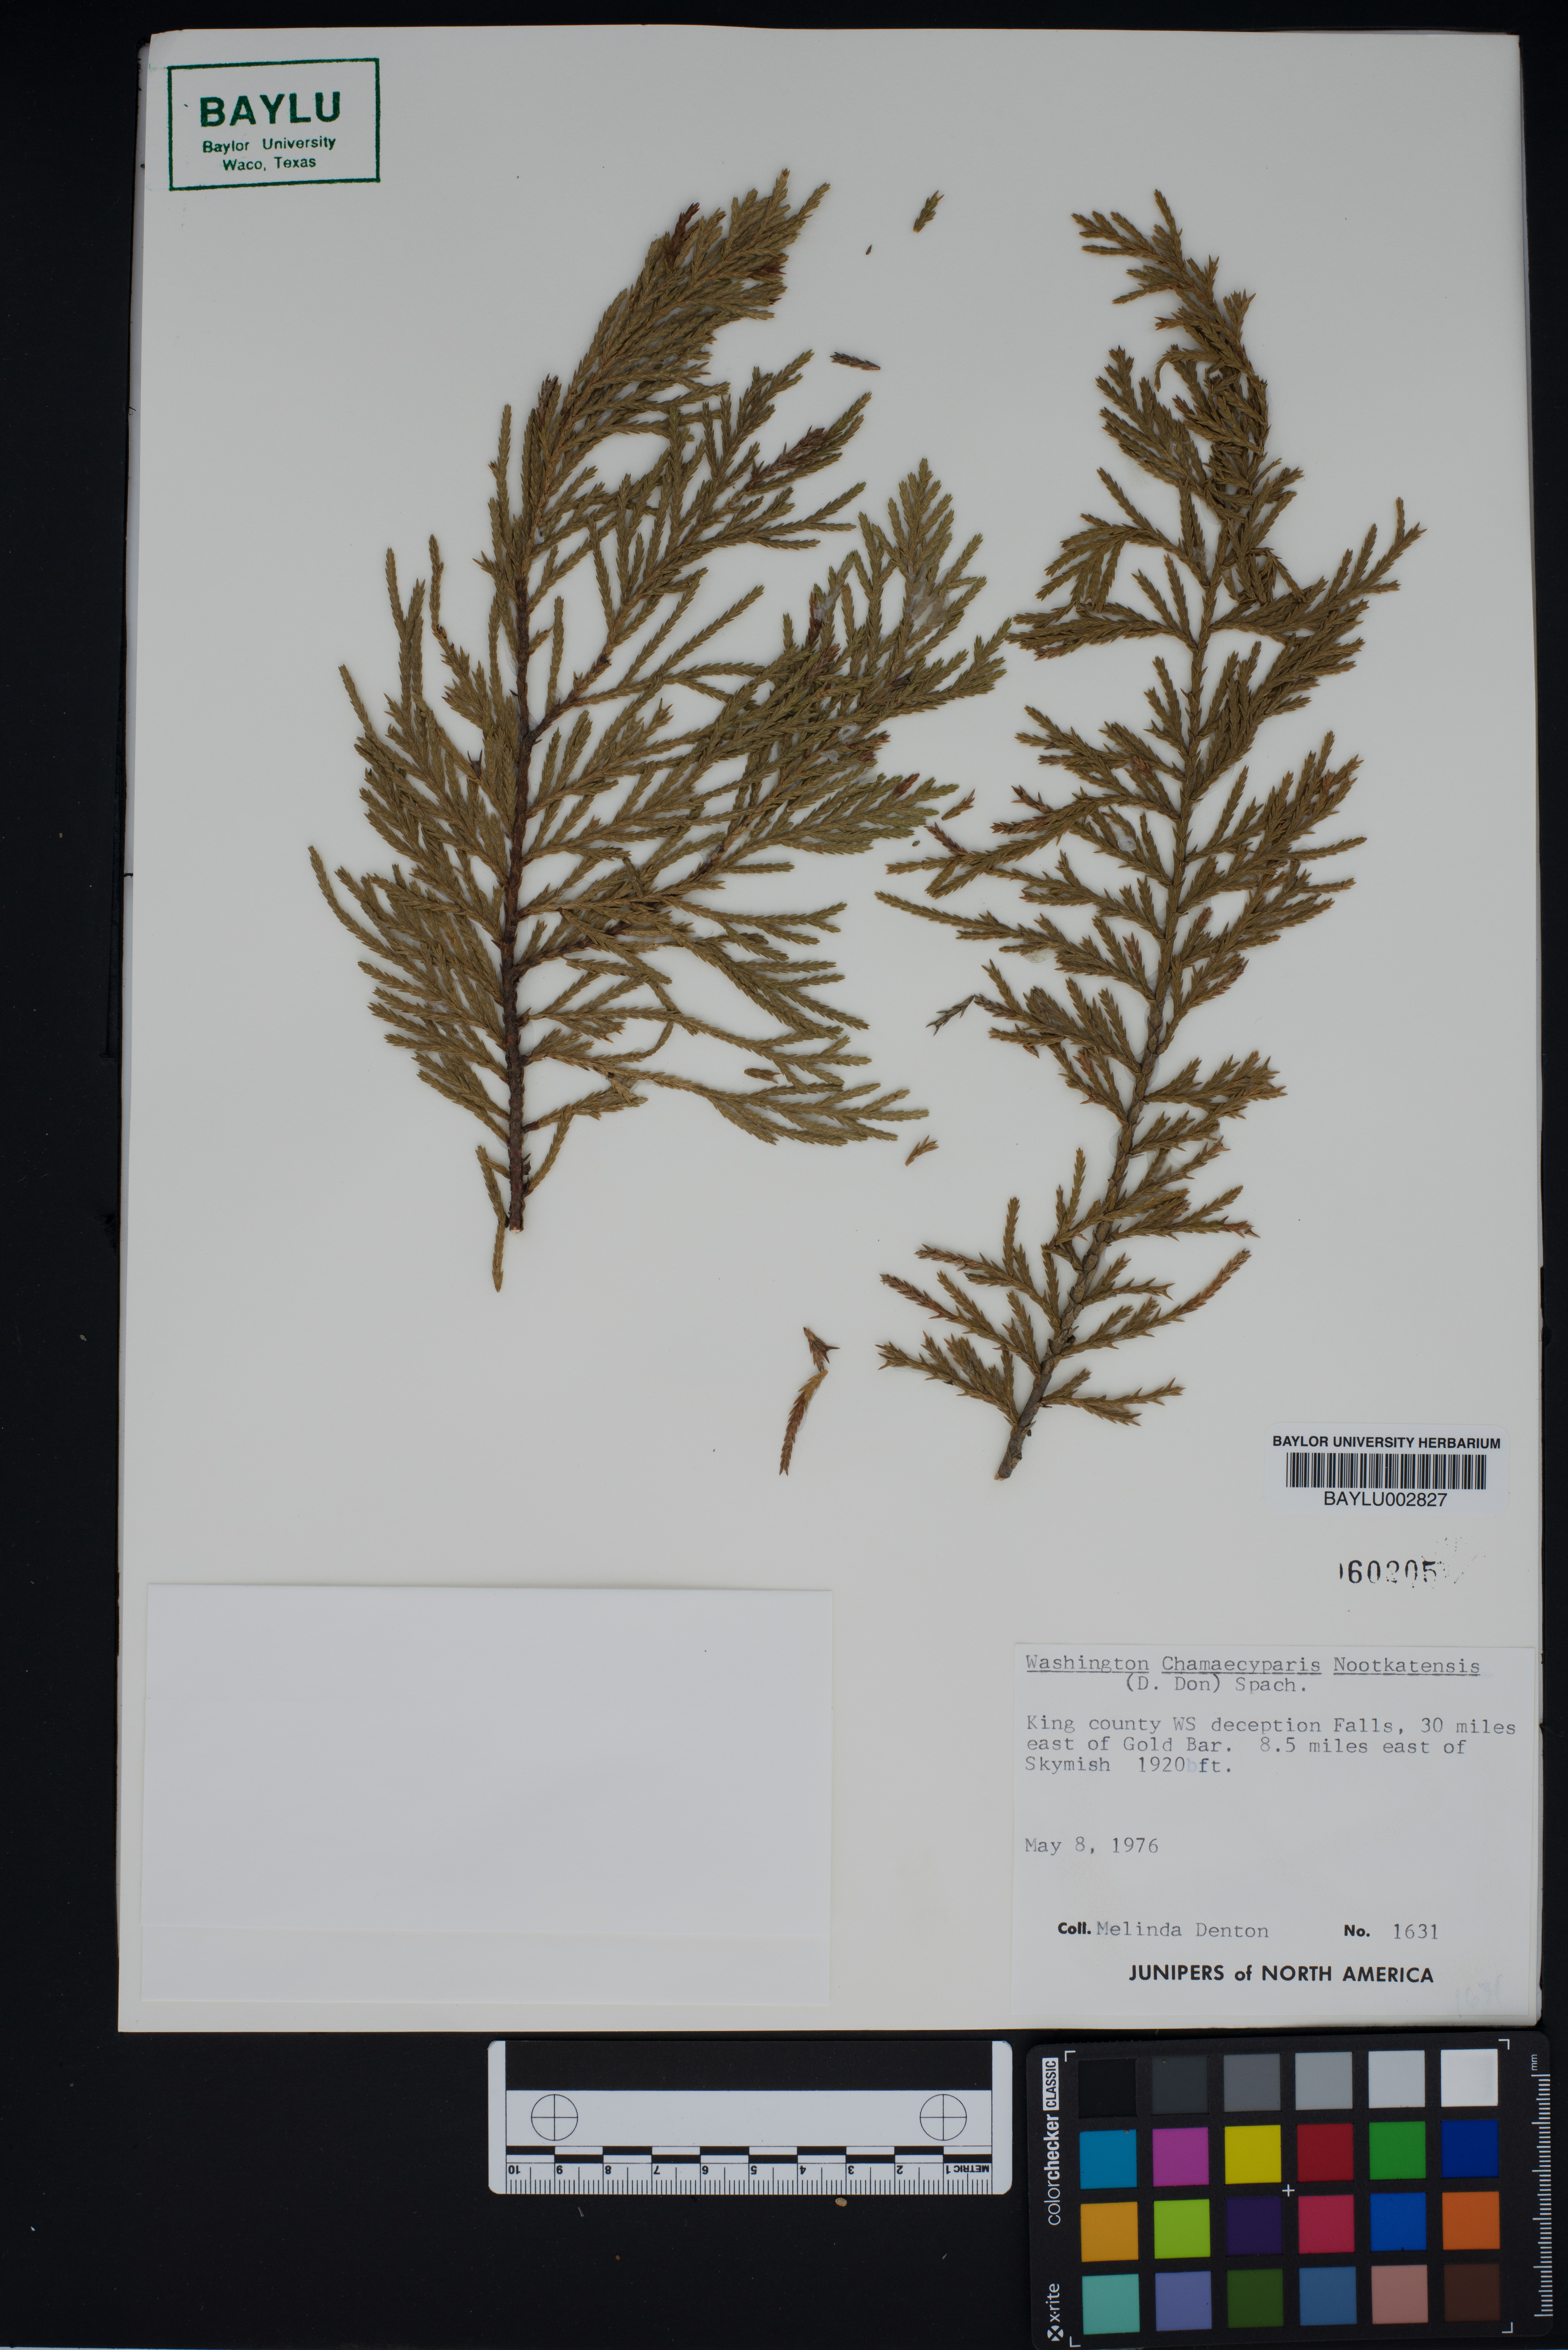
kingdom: Plantae
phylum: Tracheophyta
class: Pinopsida
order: Pinales
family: Cupressaceae
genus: Xanthocyparis
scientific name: Xanthocyparis nootkatensis
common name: Nootka cypress
